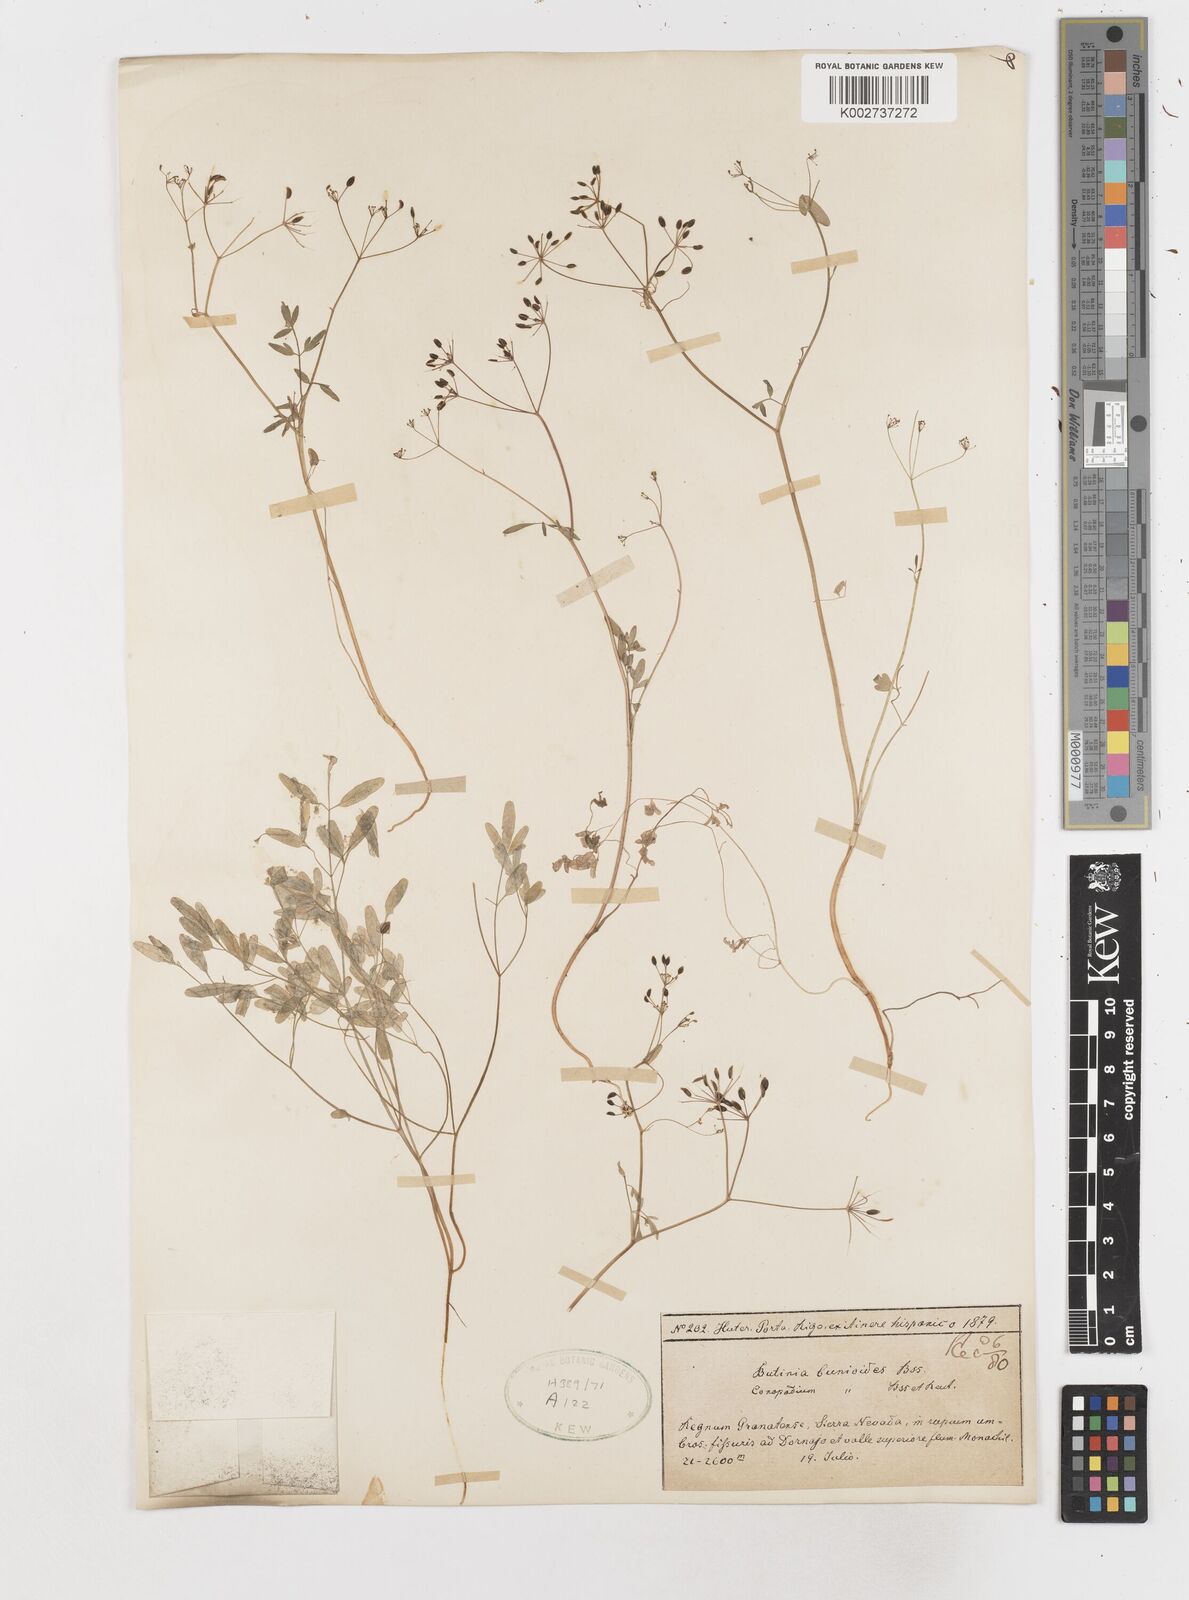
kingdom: Plantae
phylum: Tracheophyta
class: Magnoliopsida
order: Apiales
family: Apiaceae
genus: Conopodium
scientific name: Conopodium bunioides
